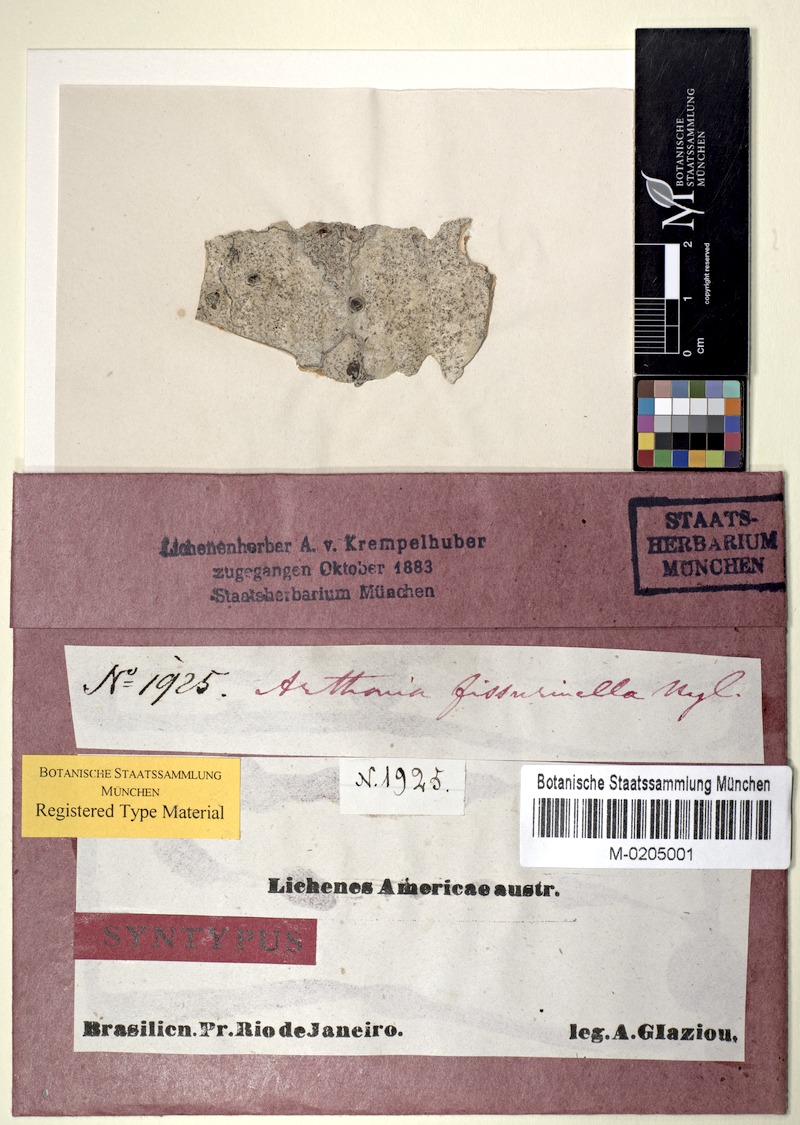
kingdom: Fungi
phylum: Ascomycota
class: Arthoniomycetes
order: Arthoniales
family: Arthoniaceae
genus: Arthonia
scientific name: Arthonia fissurina
